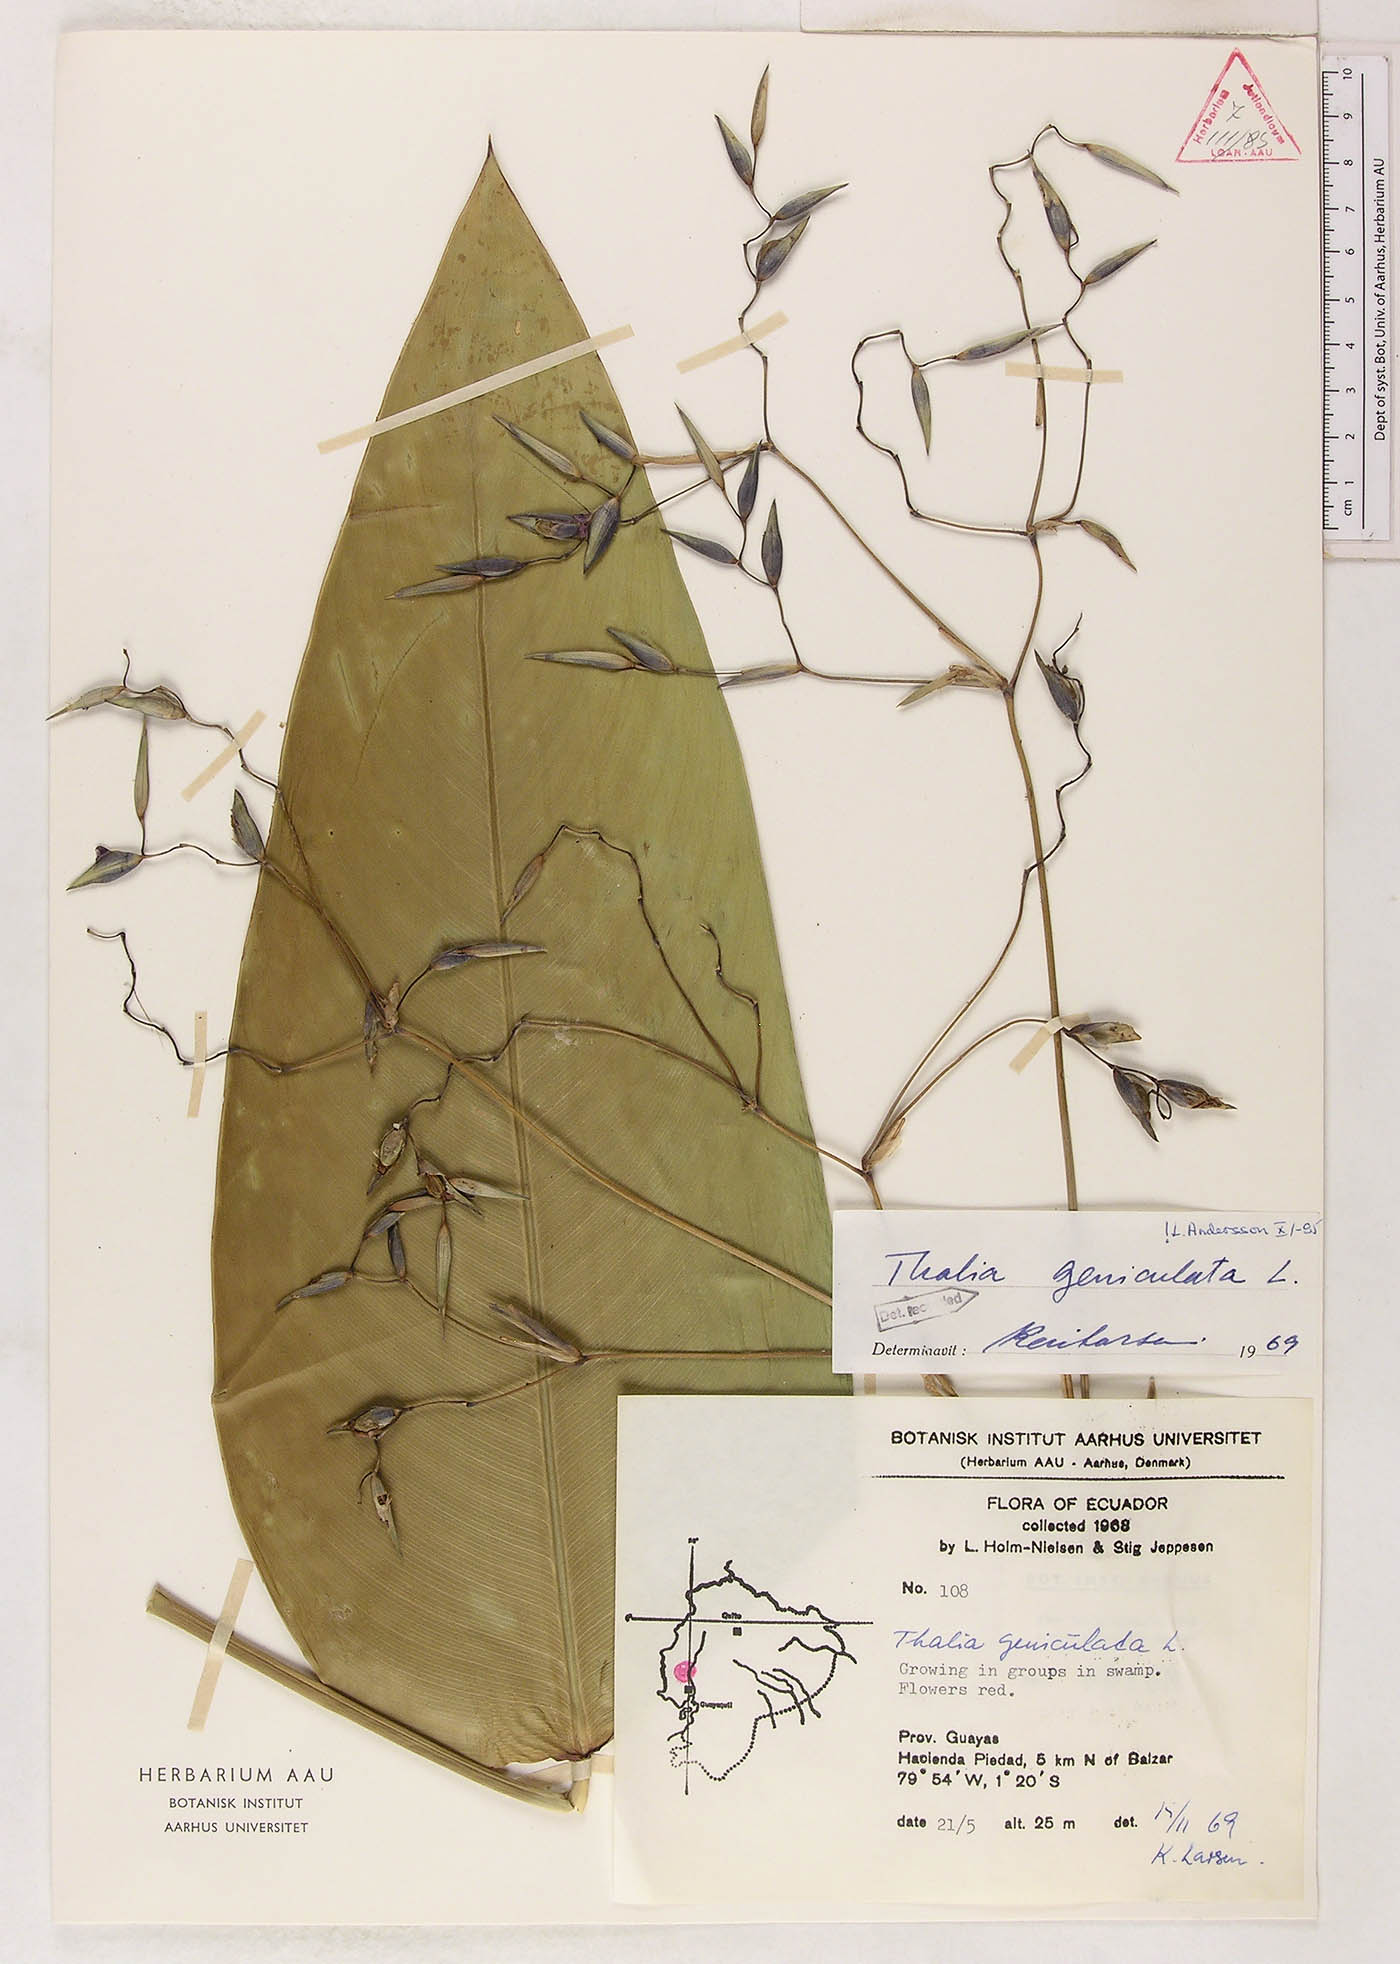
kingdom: Plantae
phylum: Tracheophyta
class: Liliopsida
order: Zingiberales
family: Marantaceae
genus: Thalia
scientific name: Thalia geniculata
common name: Arrowroot
